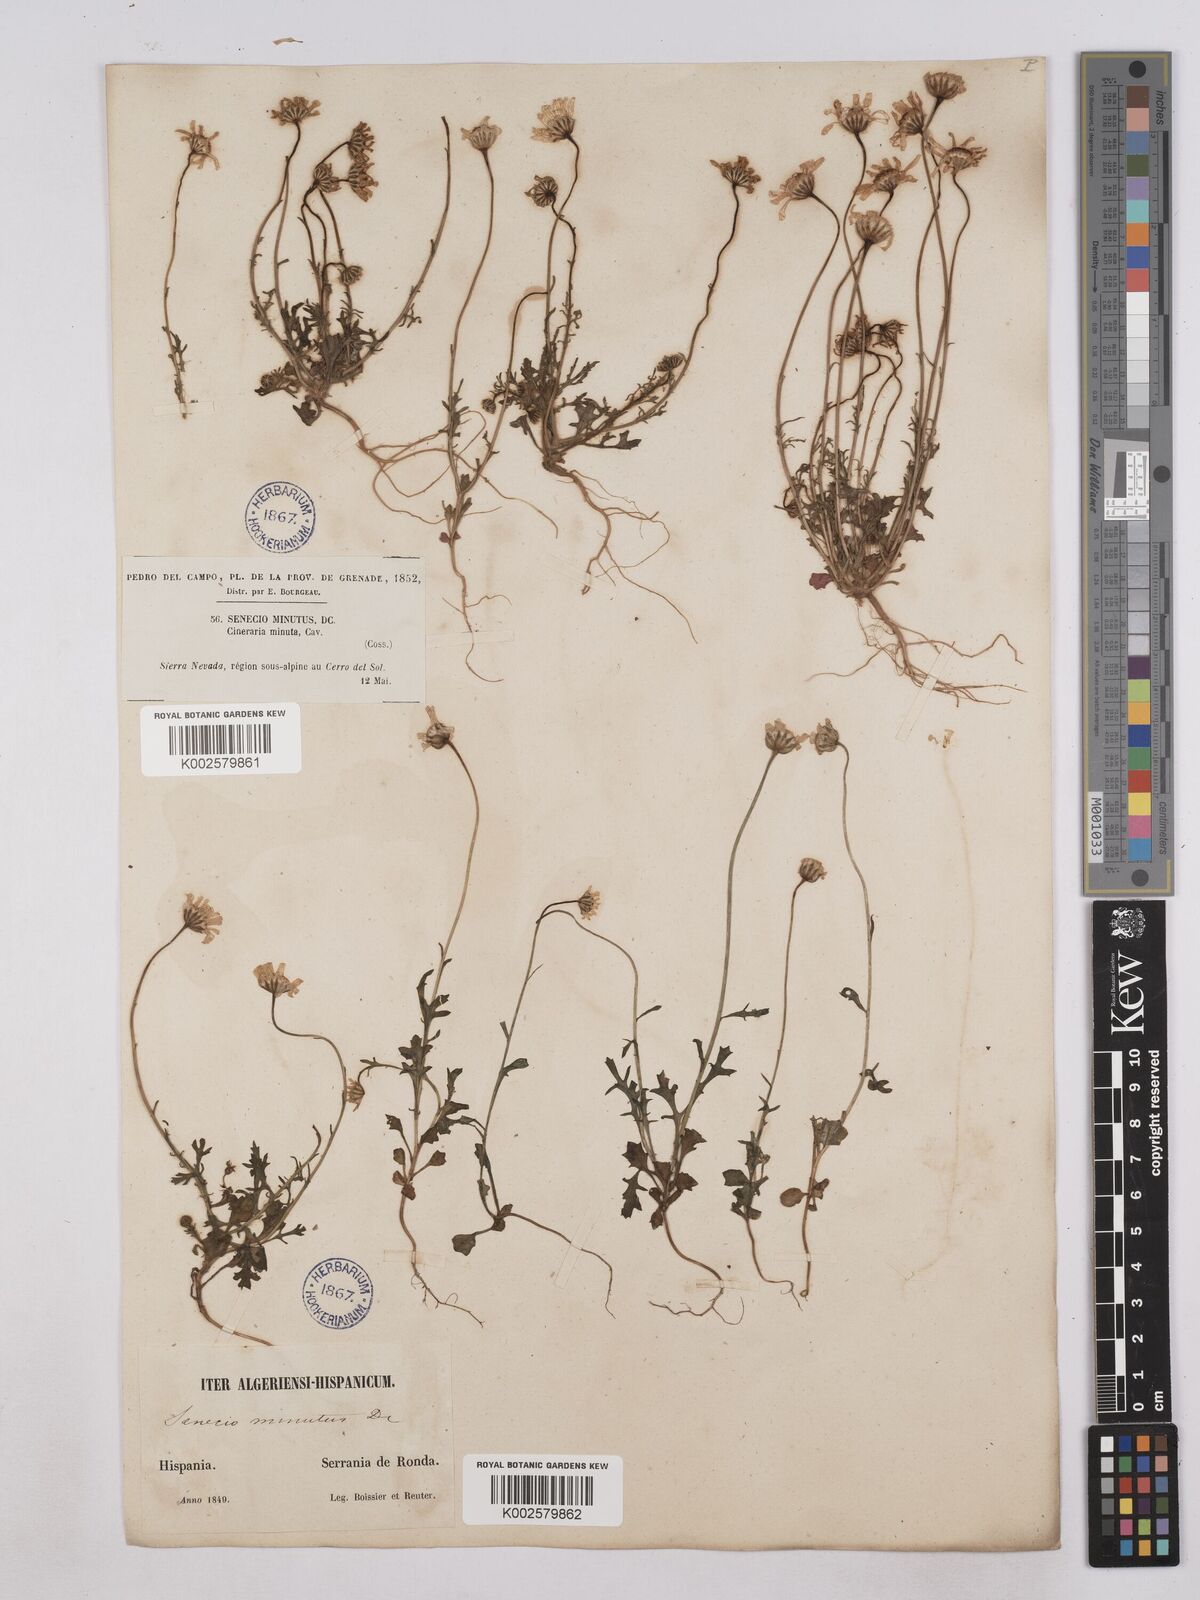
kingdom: Plantae
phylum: Tracheophyta
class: Magnoliopsida
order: Asterales
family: Asteraceae
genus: Jacobaea
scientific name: Jacobaea minuta
